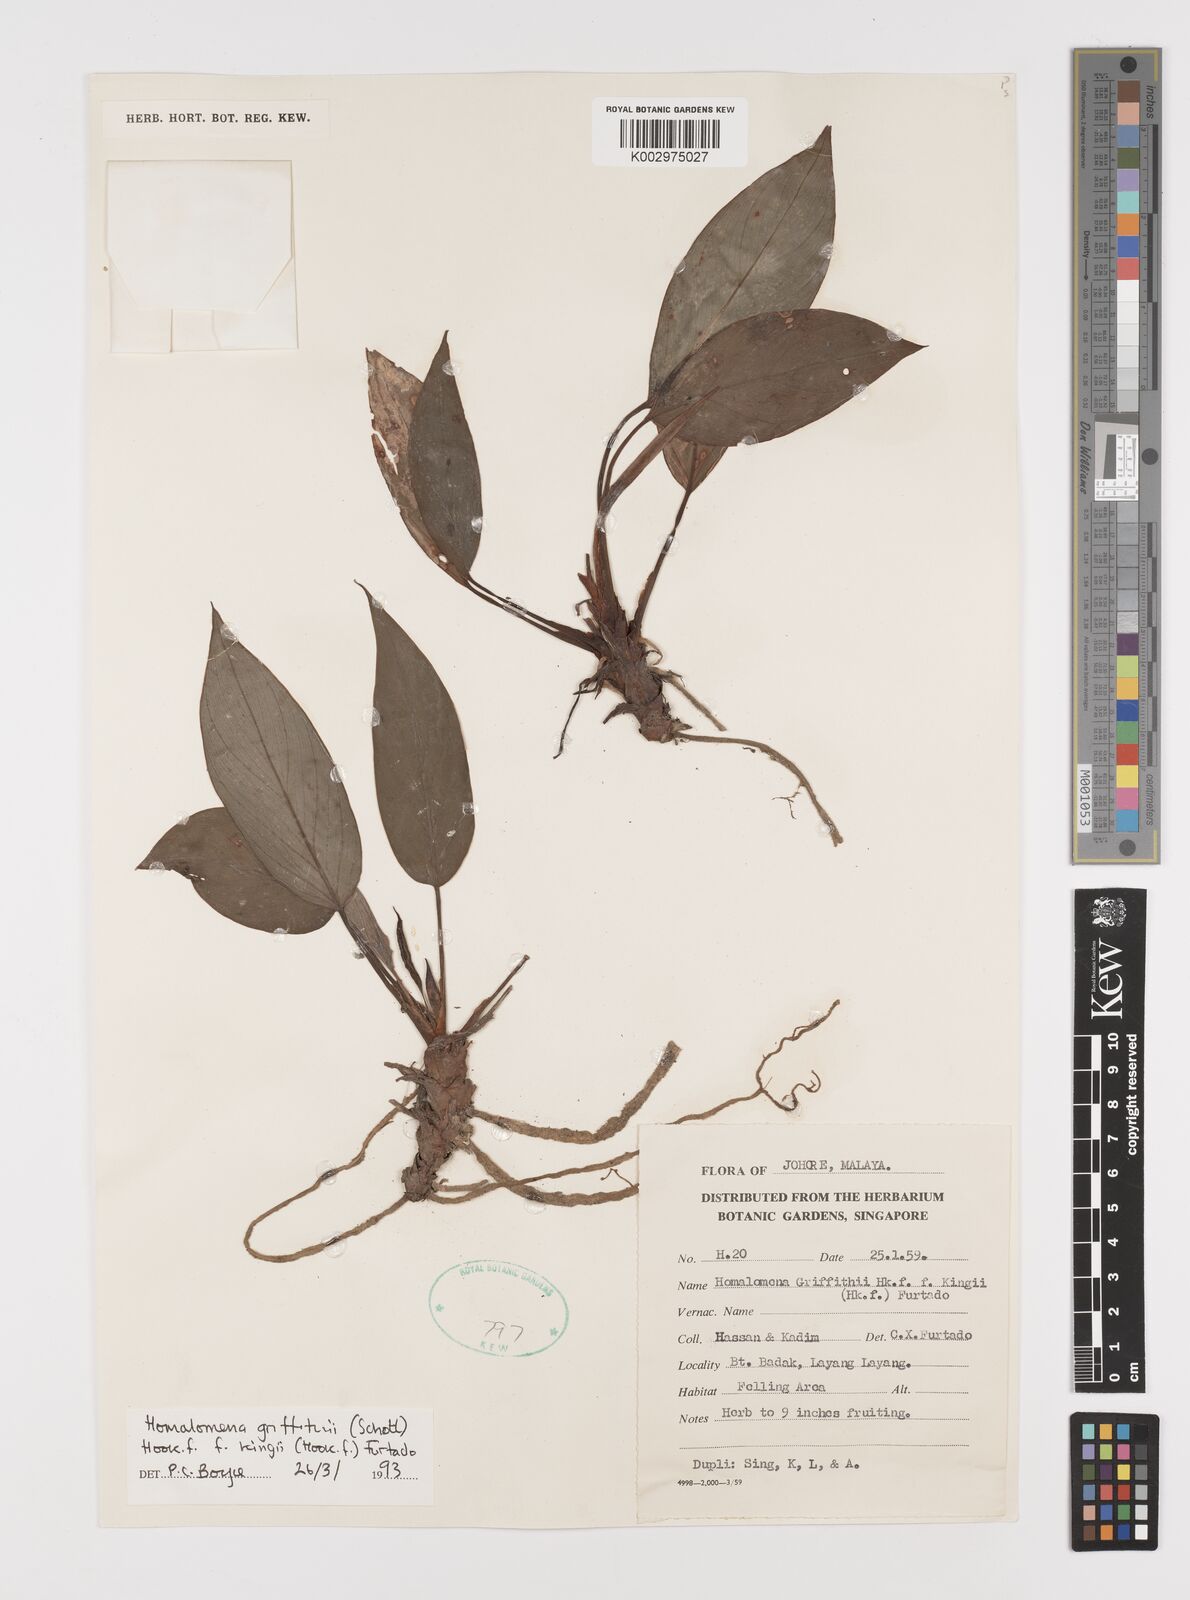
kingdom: Plantae
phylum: Tracheophyta
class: Liliopsida
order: Alismatales
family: Araceae
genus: Homalomena
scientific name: Homalomena griffithii
